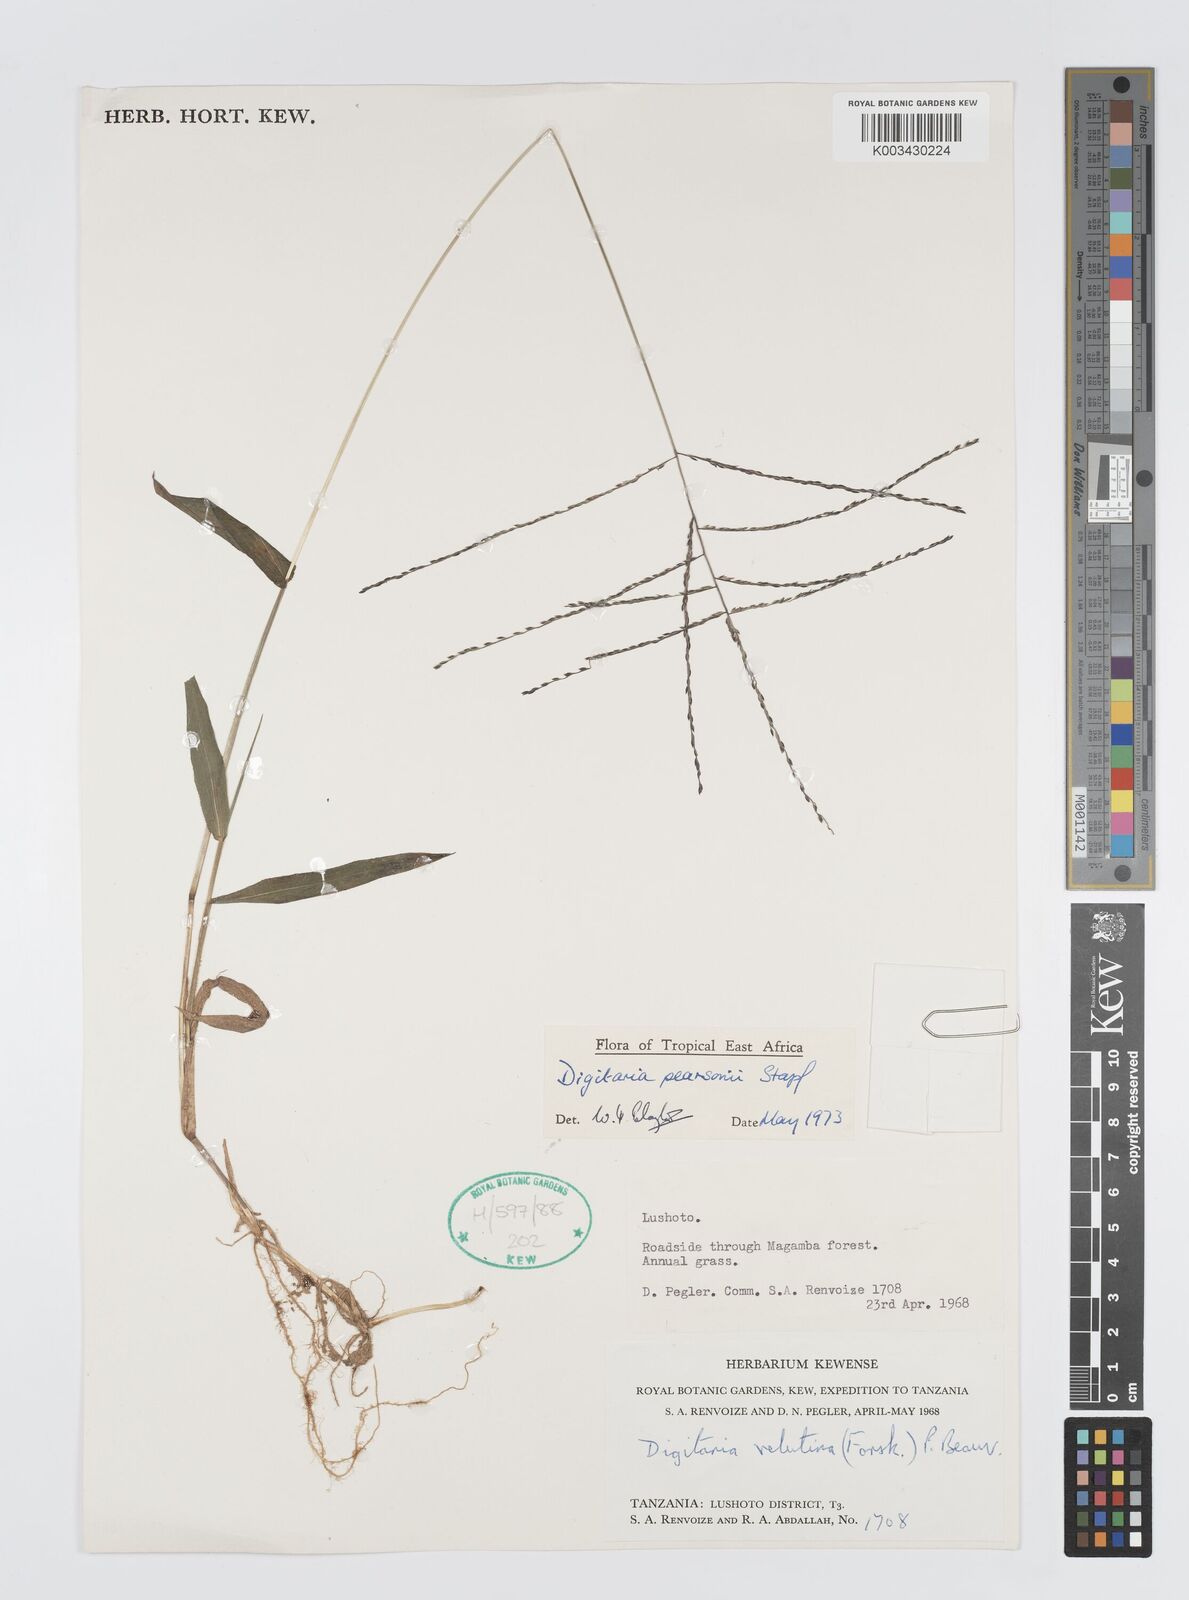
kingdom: Plantae
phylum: Tracheophyta
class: Liliopsida
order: Poales
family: Poaceae
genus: Digitaria
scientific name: Digitaria pearsonii
